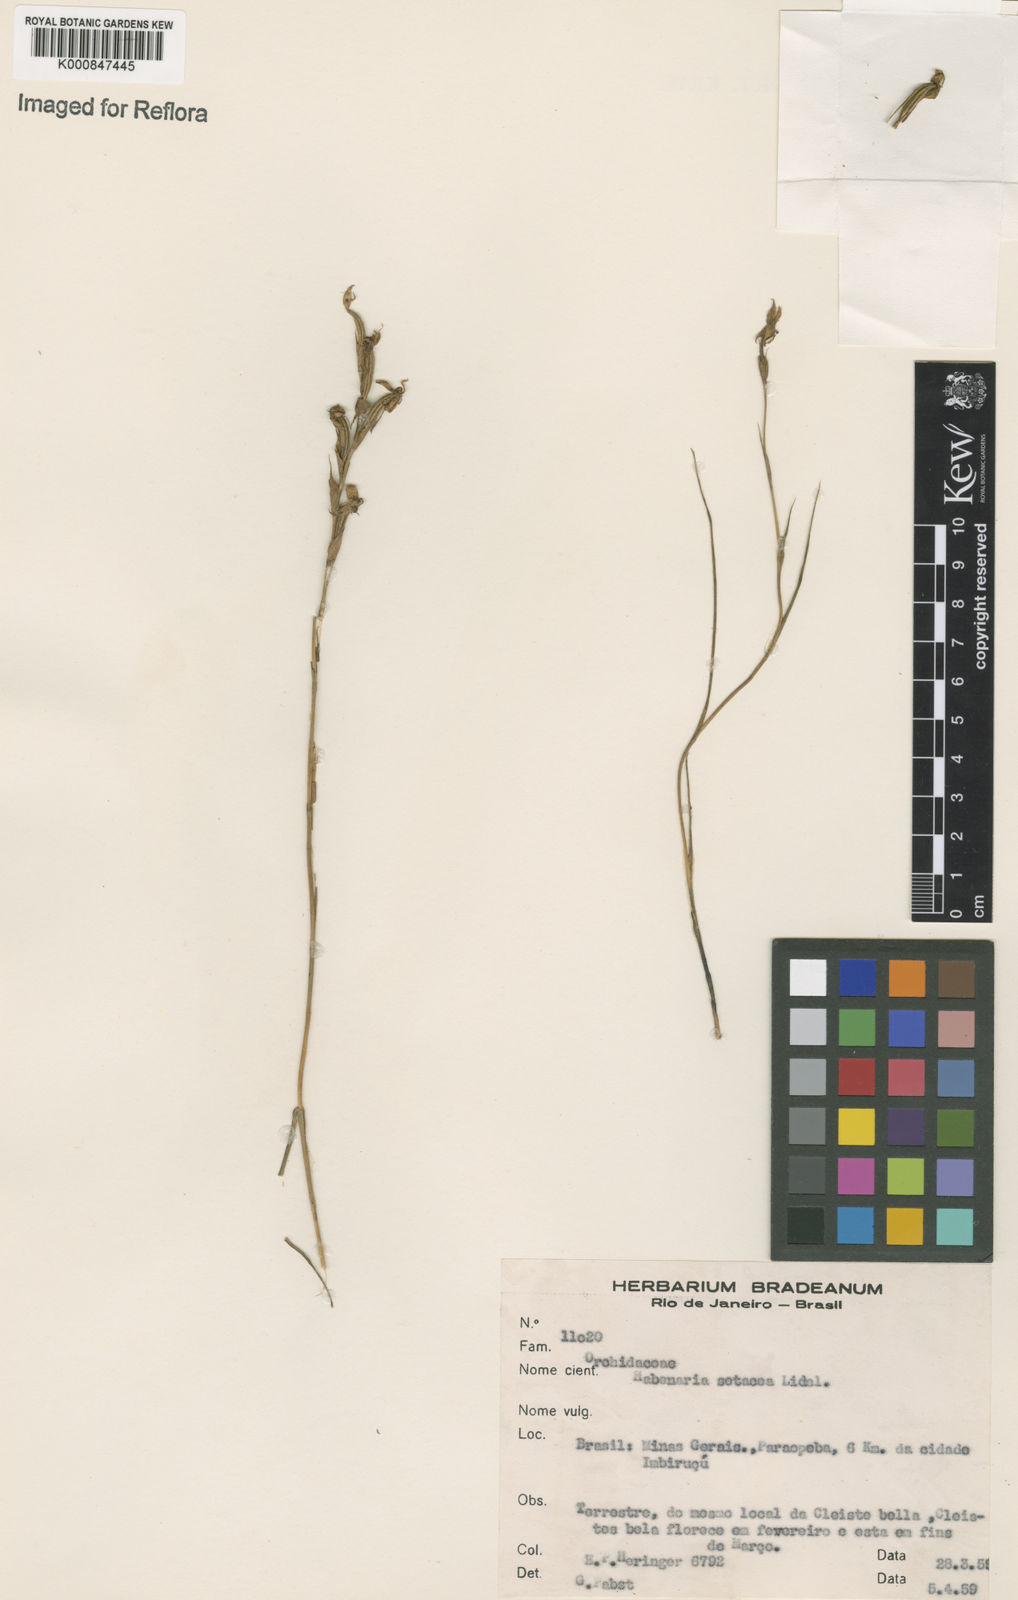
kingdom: Plantae
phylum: Tracheophyta
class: Liliopsida
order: Asparagales
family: Orchidaceae
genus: Habenaria
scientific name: Habenaria
